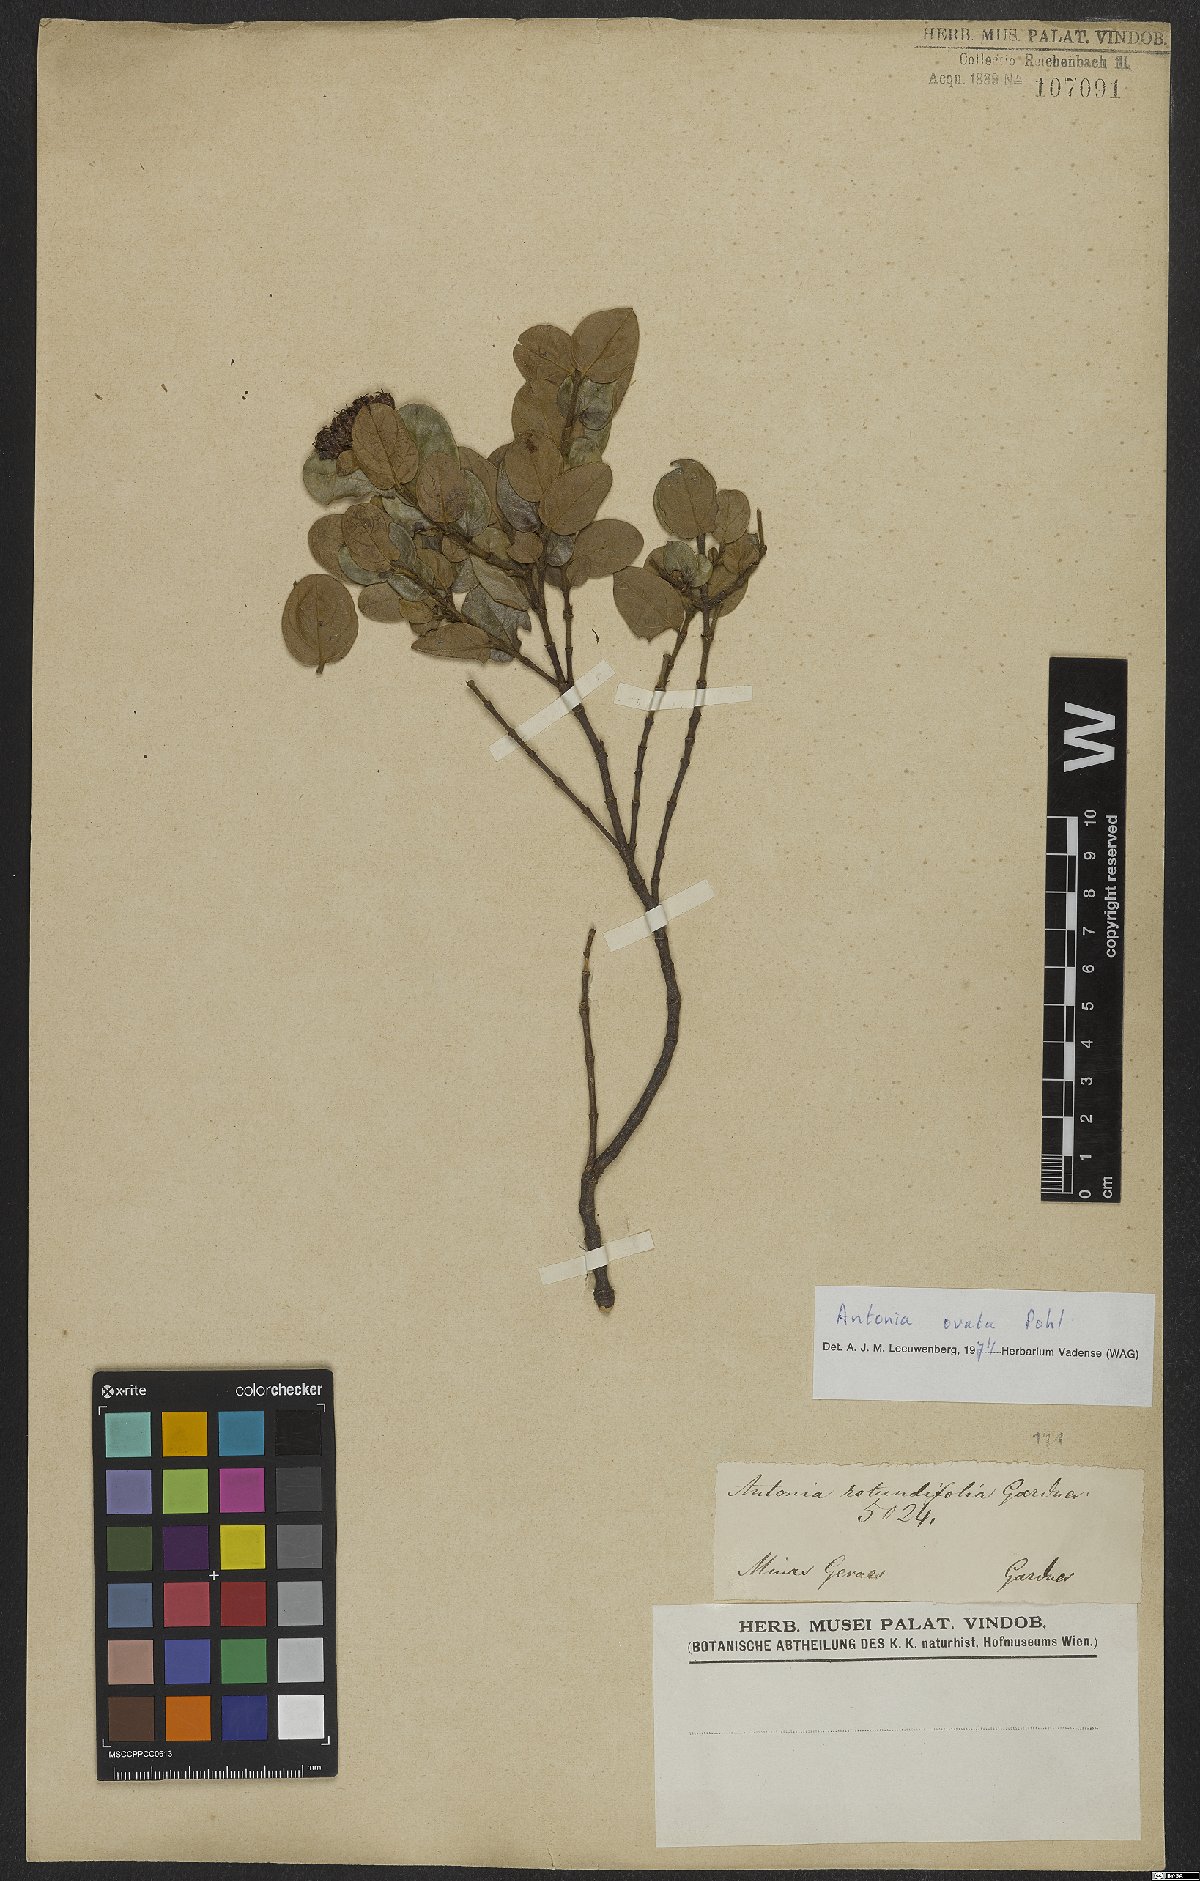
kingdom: Plantae
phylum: Tracheophyta
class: Magnoliopsida
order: Gentianales
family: Loganiaceae
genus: Antonia
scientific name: Antonia ovata
